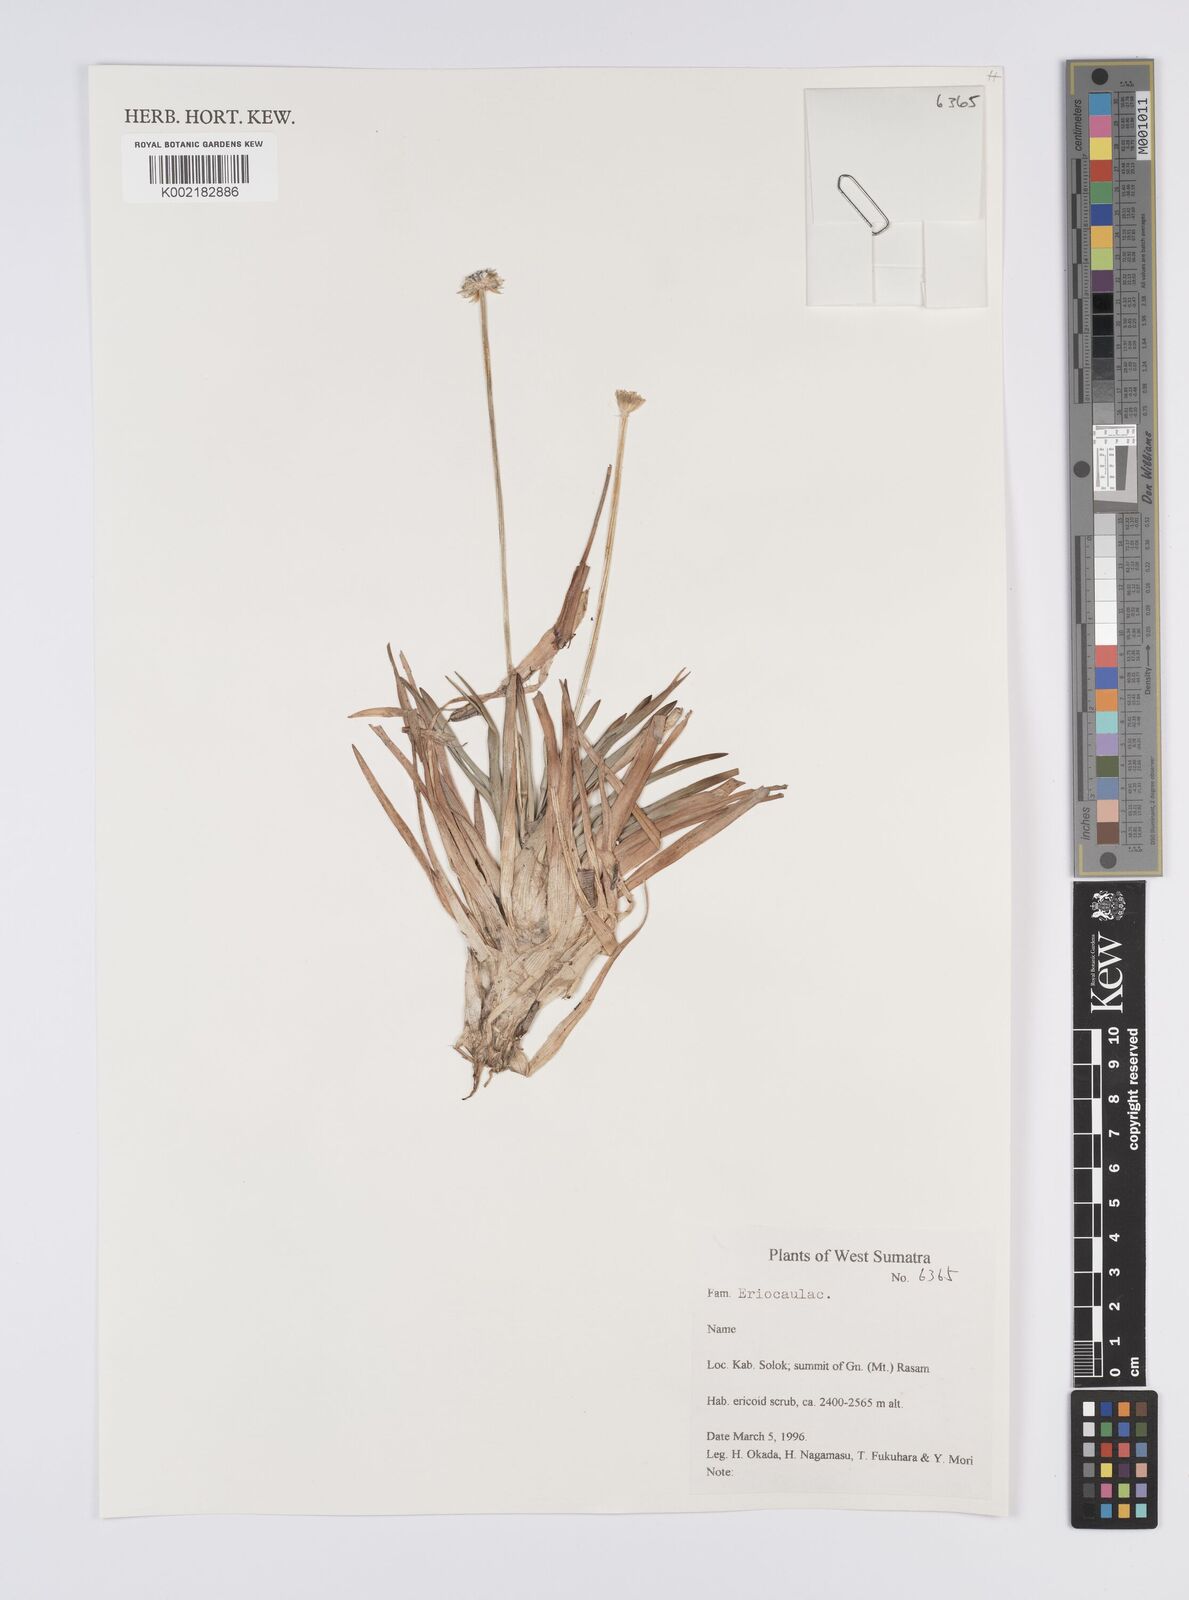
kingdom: Plantae
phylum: Tracheophyta
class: Liliopsida
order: Poales
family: Eriocaulaceae
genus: Eriocaulon
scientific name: Eriocaulon
